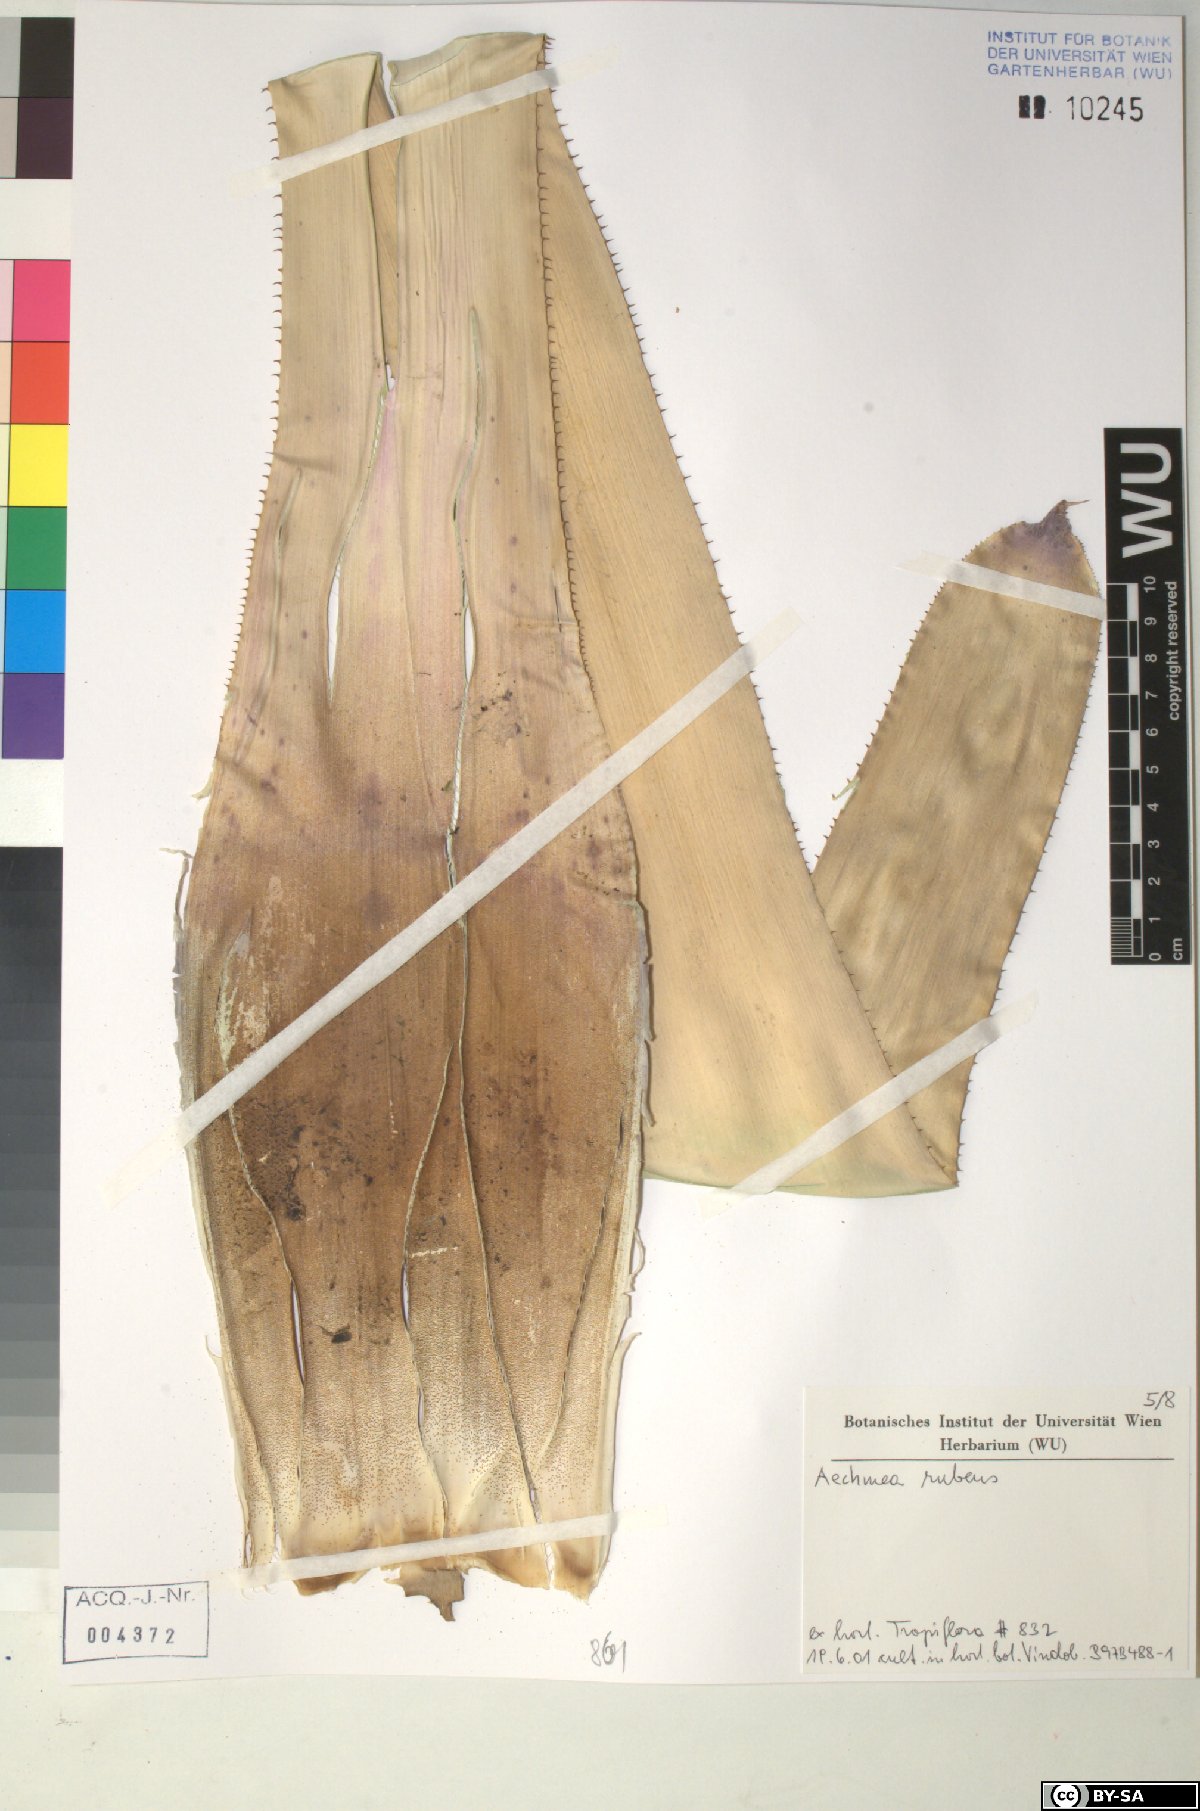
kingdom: Plantae
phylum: Tracheophyta
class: Liliopsida
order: Poales
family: Bromeliaceae
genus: Aechmea
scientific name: Aechmea rubens
